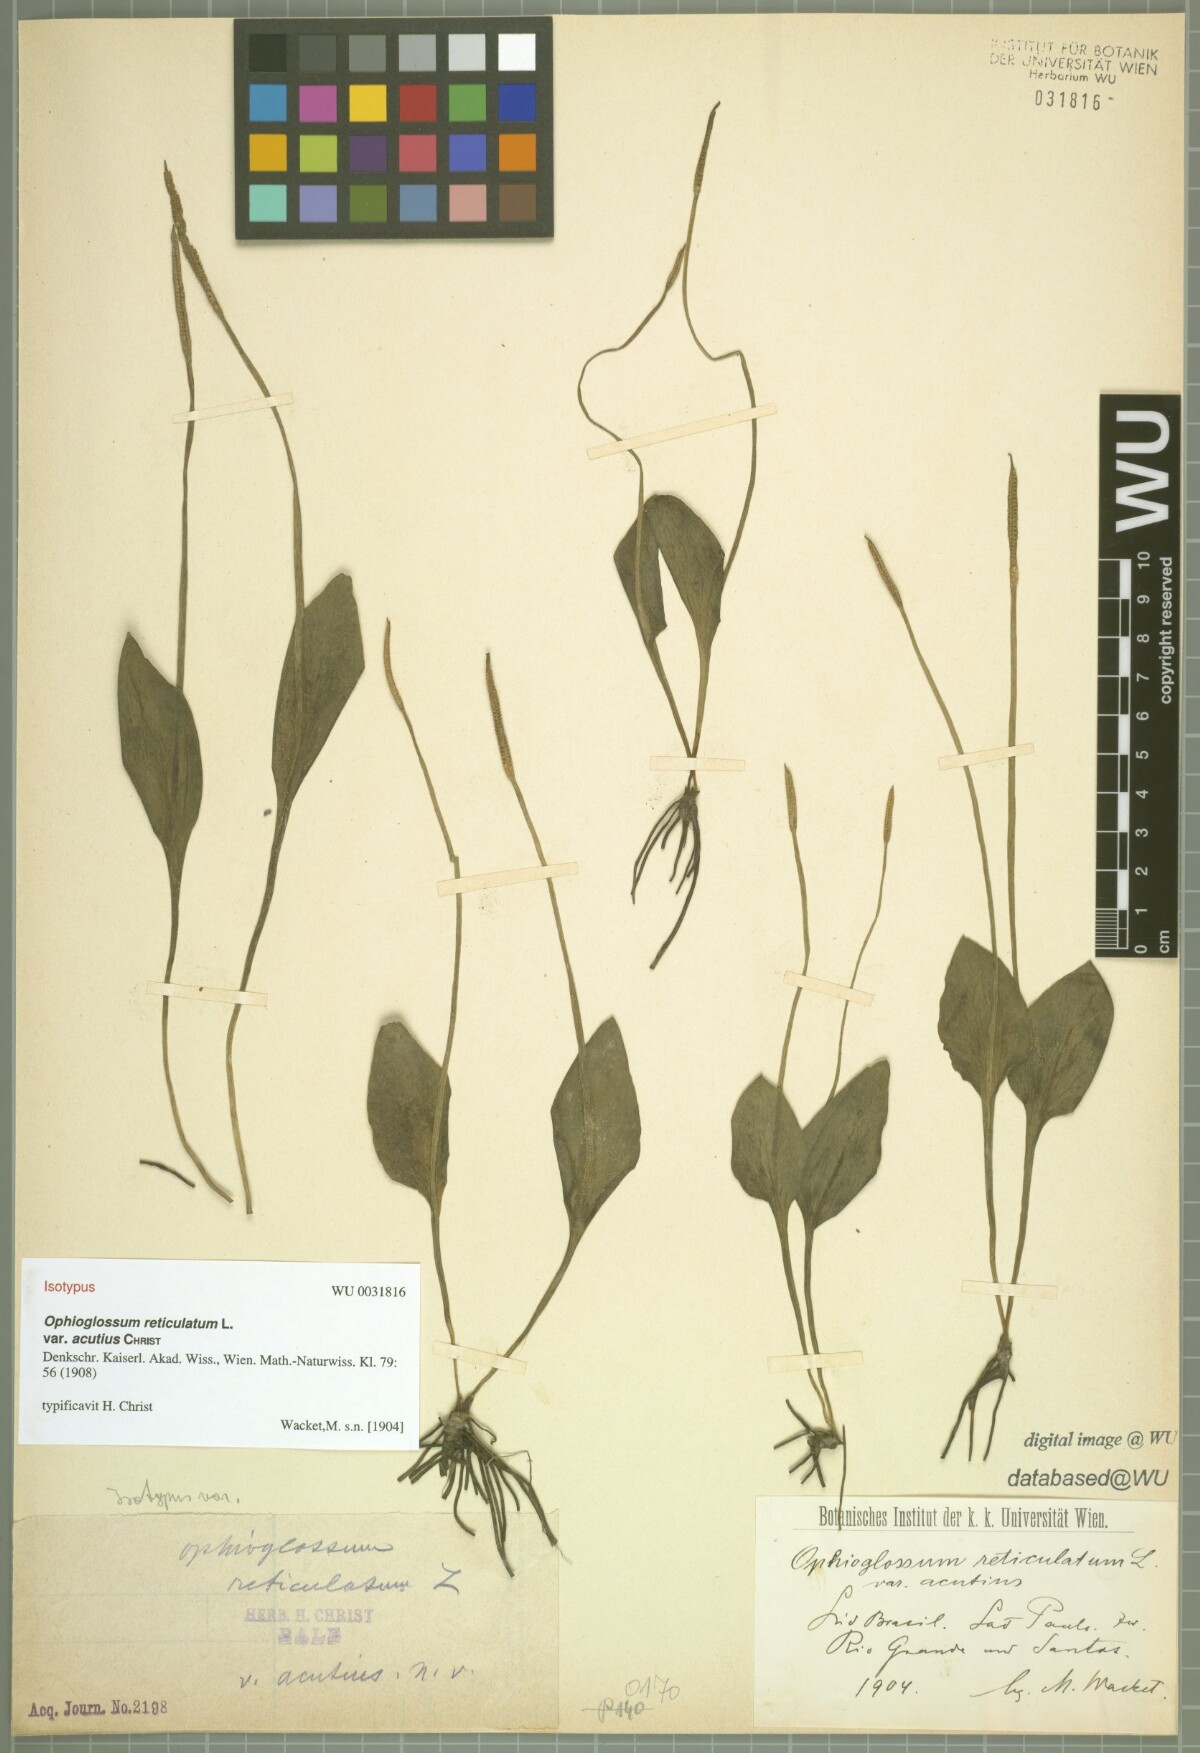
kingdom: Plantae
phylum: Tracheophyta
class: Polypodiopsida
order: Ophioglossales
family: Ophioglossaceae
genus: Ophioglossum
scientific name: Ophioglossum reticulatum
